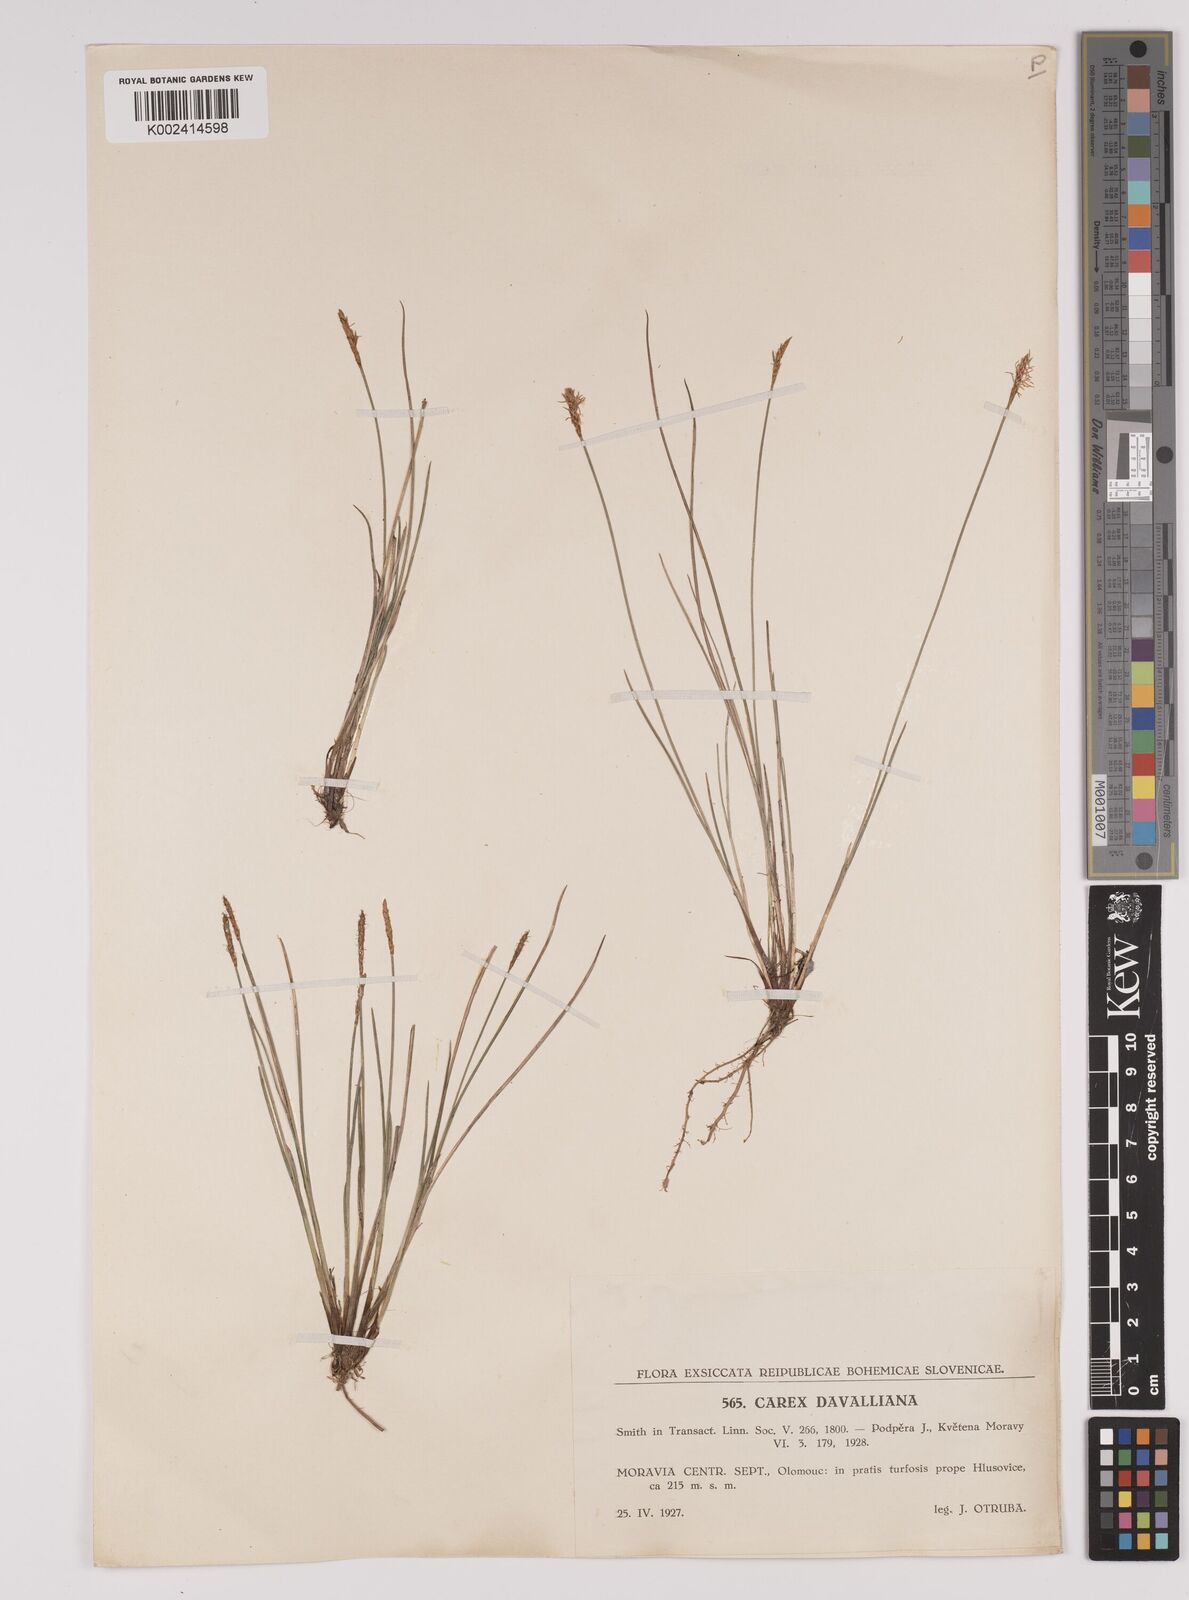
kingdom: Plantae
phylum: Tracheophyta
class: Liliopsida
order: Poales
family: Cyperaceae
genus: Carex
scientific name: Carex davalliana
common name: Davall's sedge
